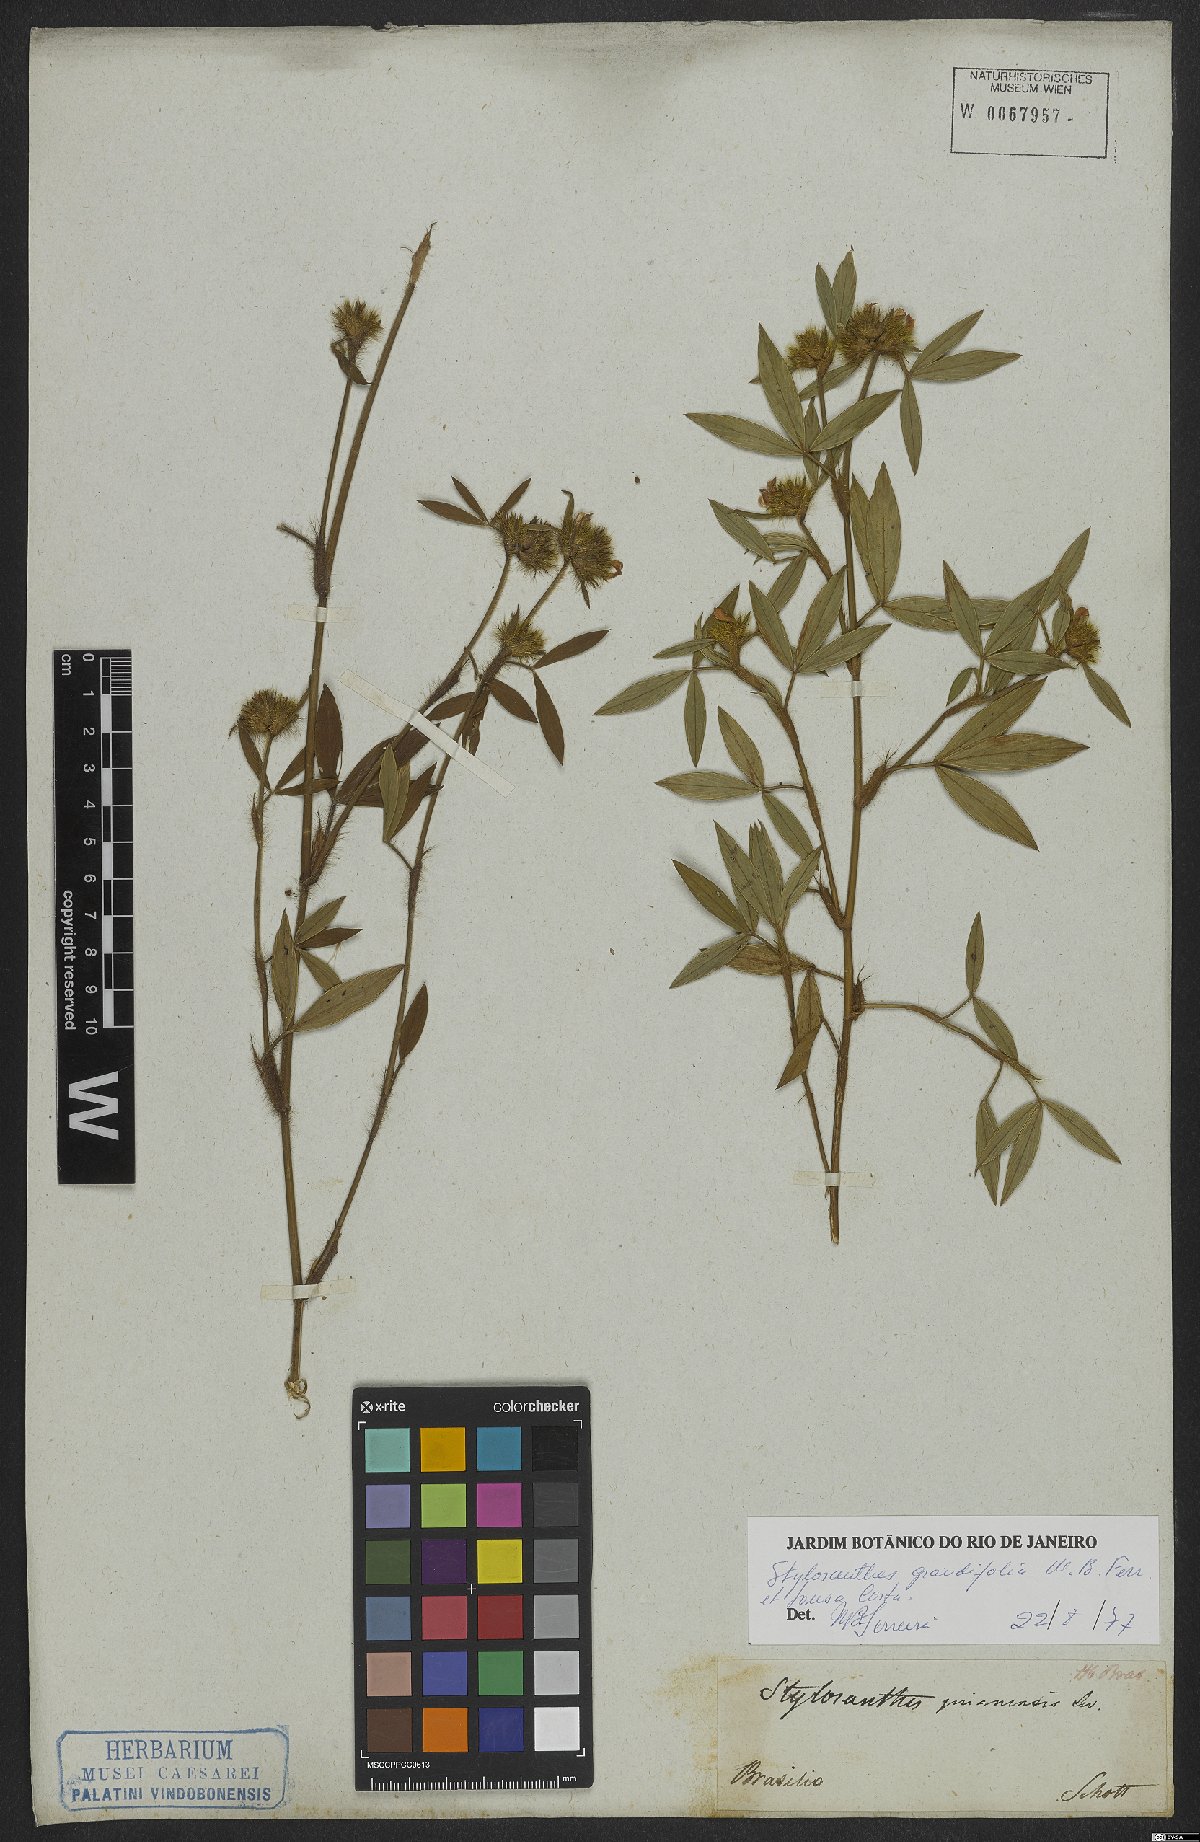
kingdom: Plantae
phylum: Tracheophyta
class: Magnoliopsida
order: Fabales
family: Fabaceae
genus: Stylosanthes
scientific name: Stylosanthes guianensis
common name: Pencil flower
